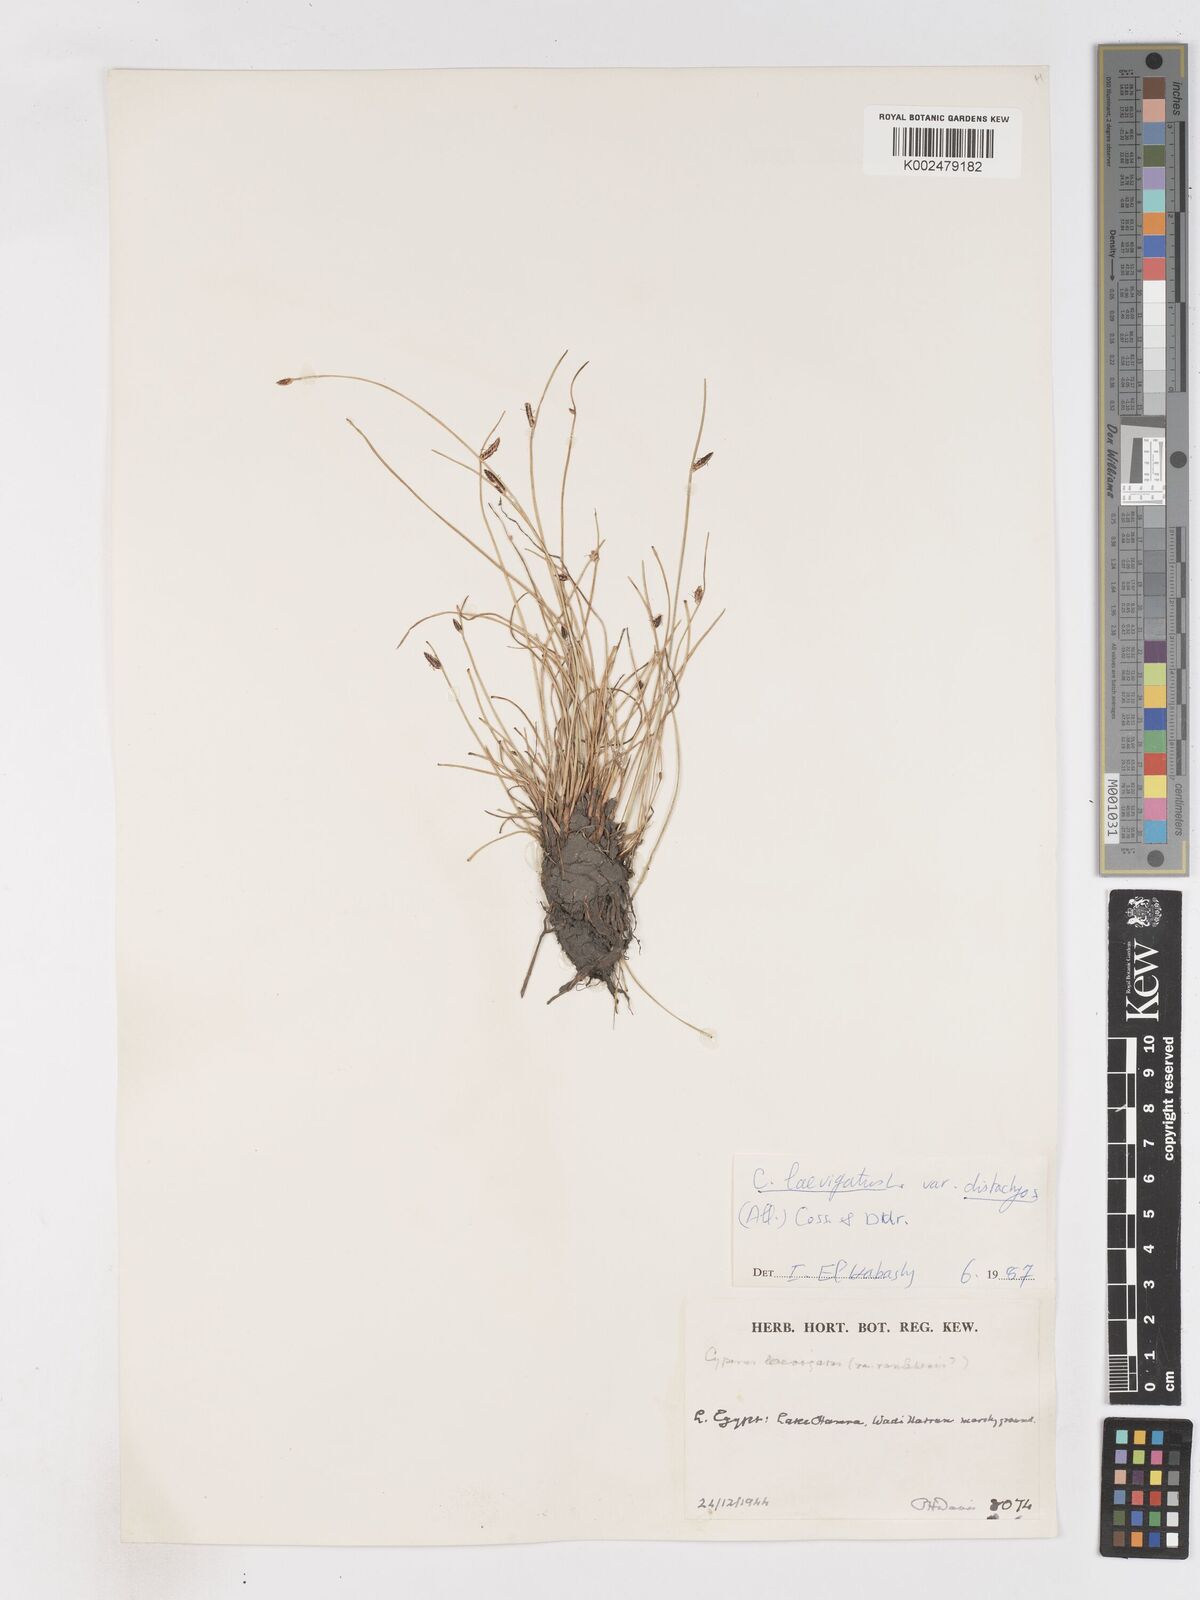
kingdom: Plantae
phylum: Tracheophyta
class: Liliopsida
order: Poales
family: Cyperaceae
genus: Cyperus
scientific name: Cyperus laevigatus
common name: Smooth flat sedge
